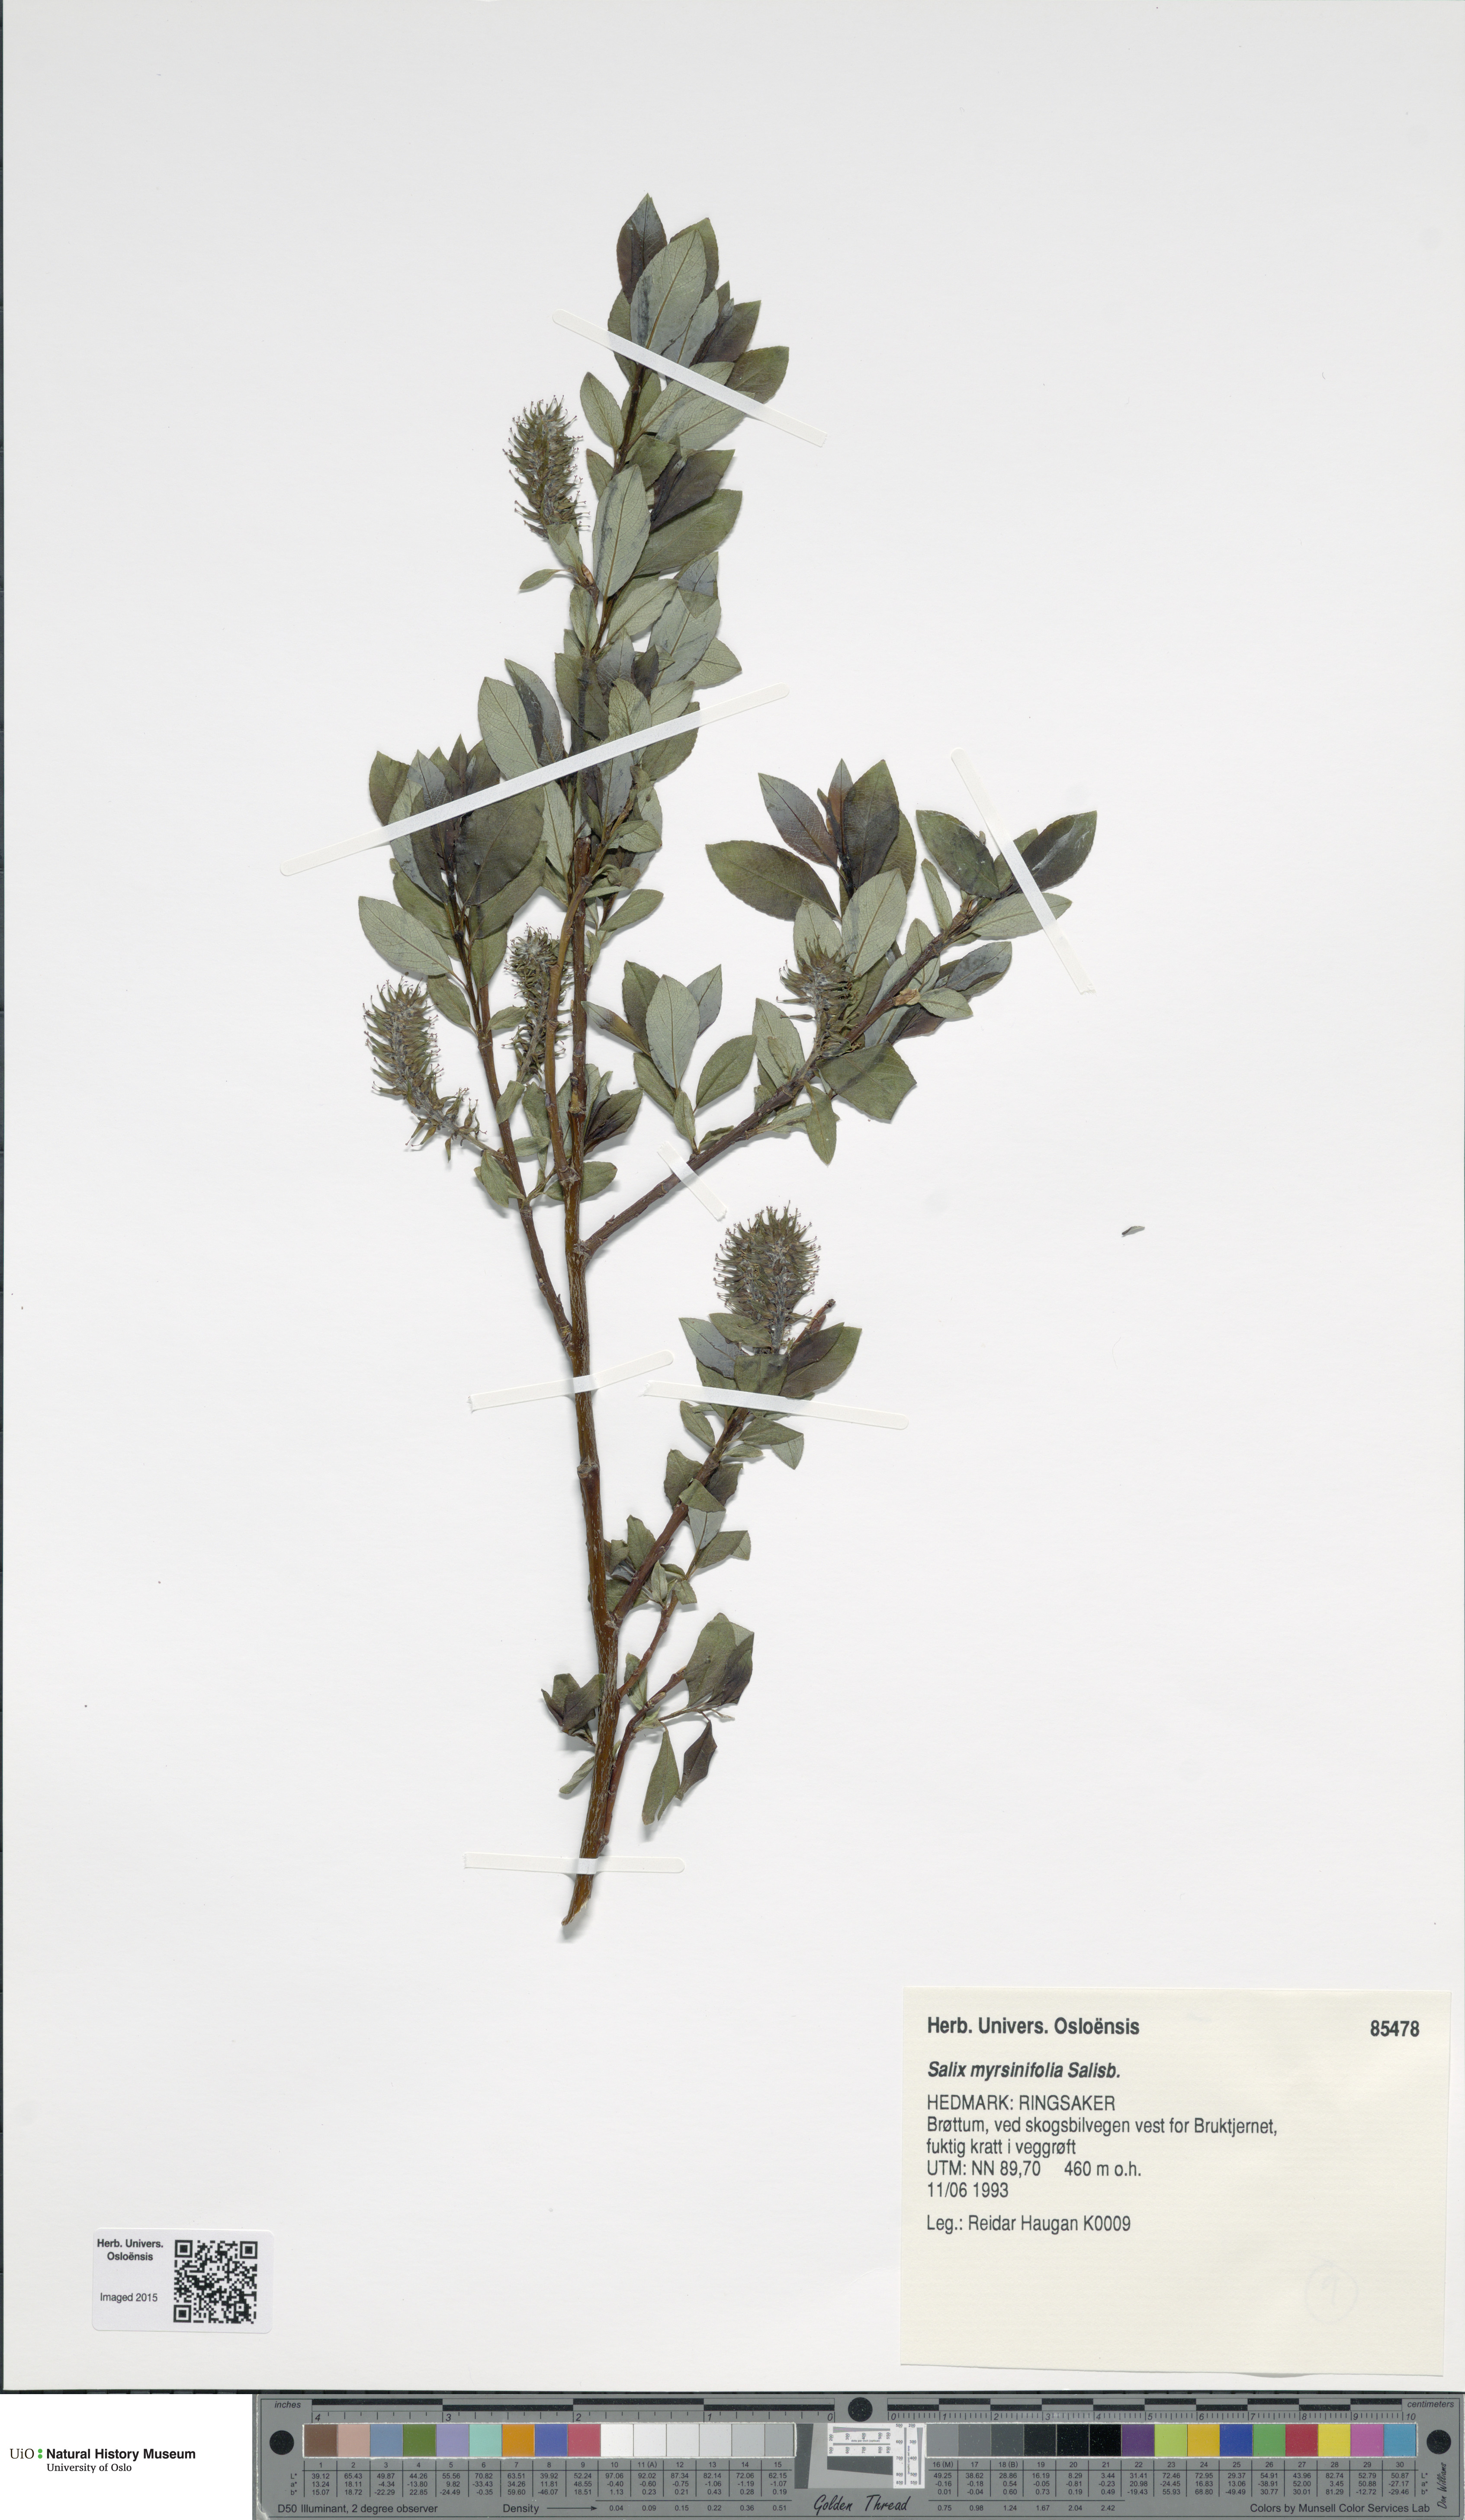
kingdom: Plantae
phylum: Tracheophyta
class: Magnoliopsida
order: Malpighiales
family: Salicaceae
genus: Salix
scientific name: Salix myrsinifolia
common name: Dark-leaved willow
